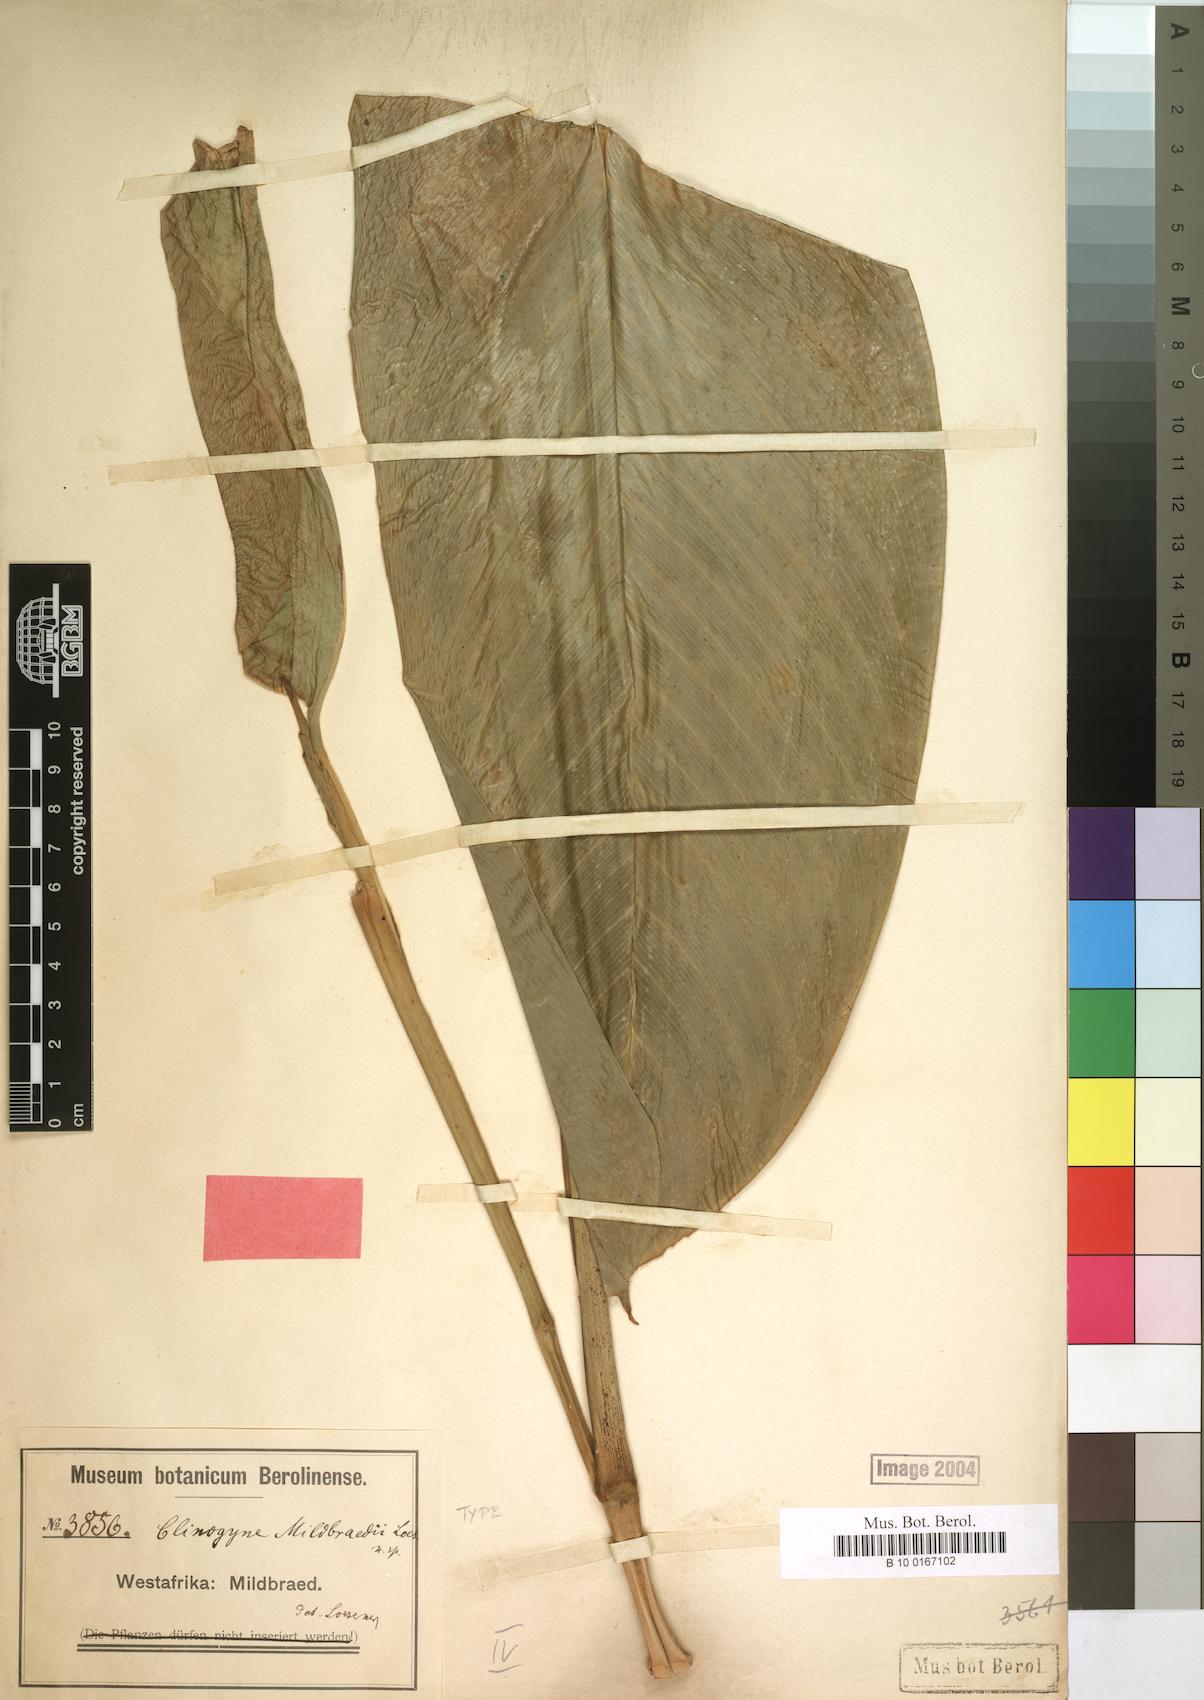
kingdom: Plantae
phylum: Tracheophyta
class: Liliopsida
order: Zingiberales
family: Marantaceae
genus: Marantochloa
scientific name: Marantochloa mildbraedii
